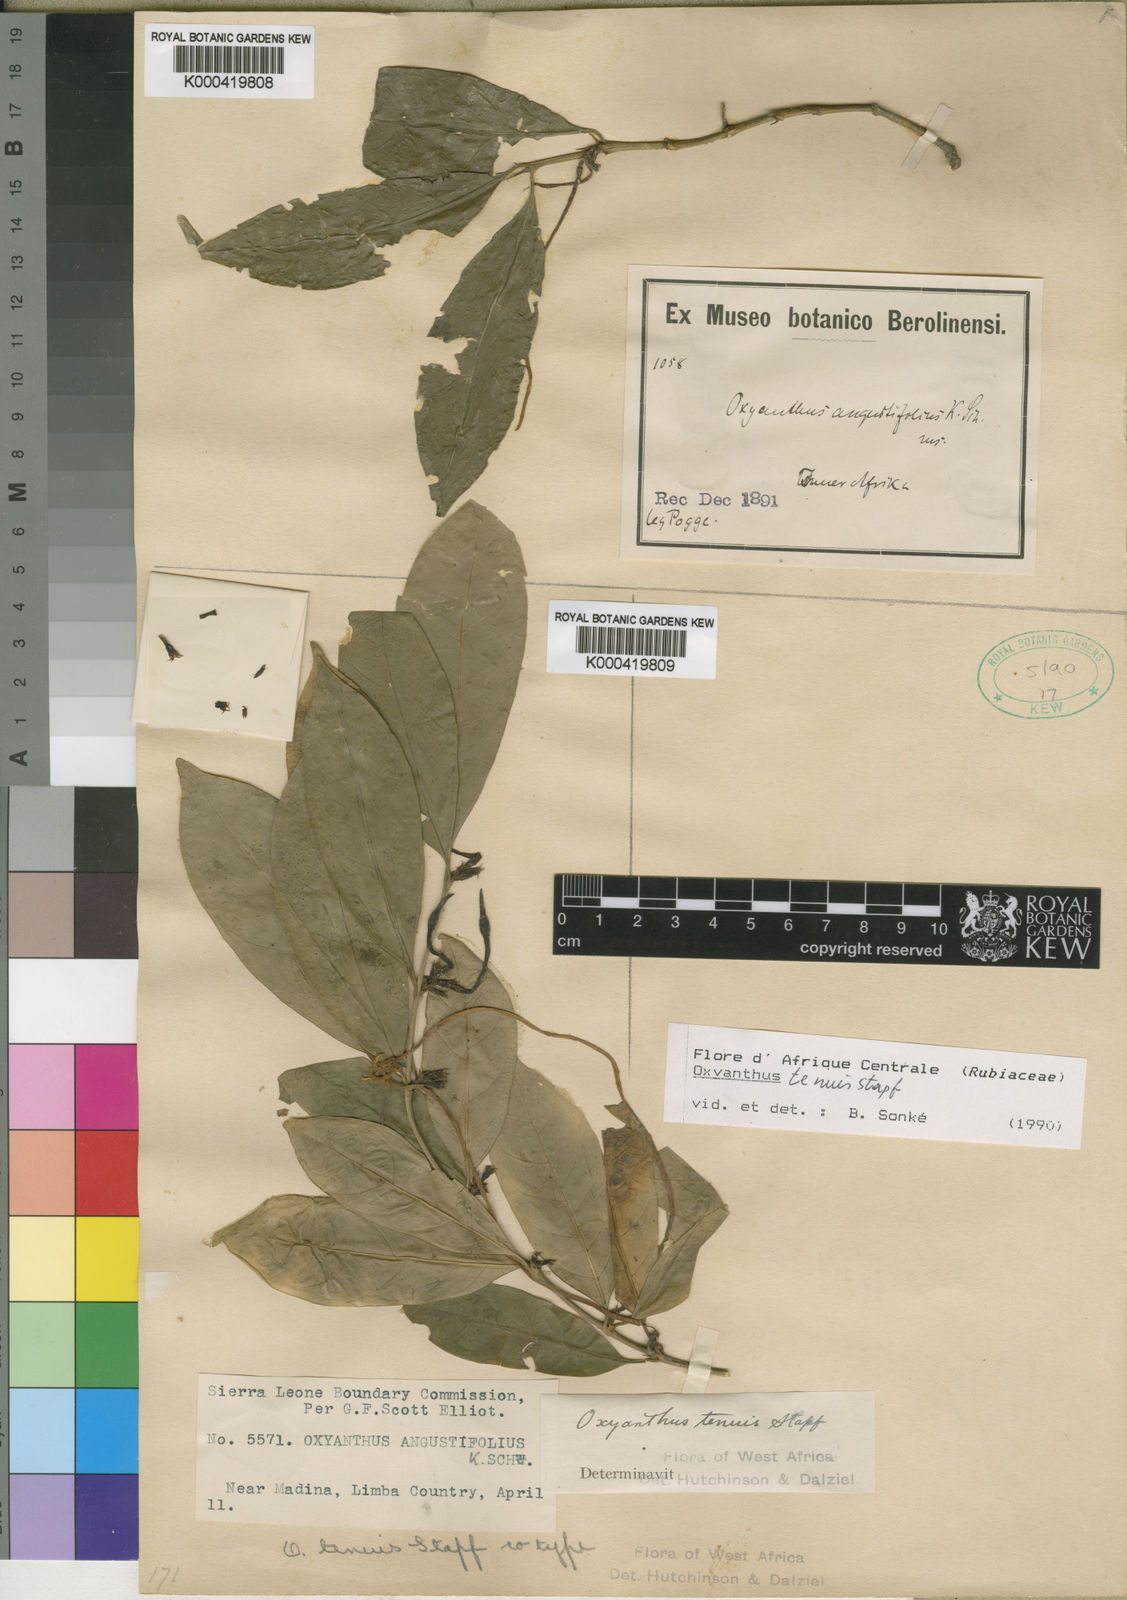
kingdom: Plantae
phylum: Tracheophyta
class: Magnoliopsida
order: Gentianales
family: Rubiaceae
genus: Oxyanthus
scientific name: Oxyanthus subpunctatus
